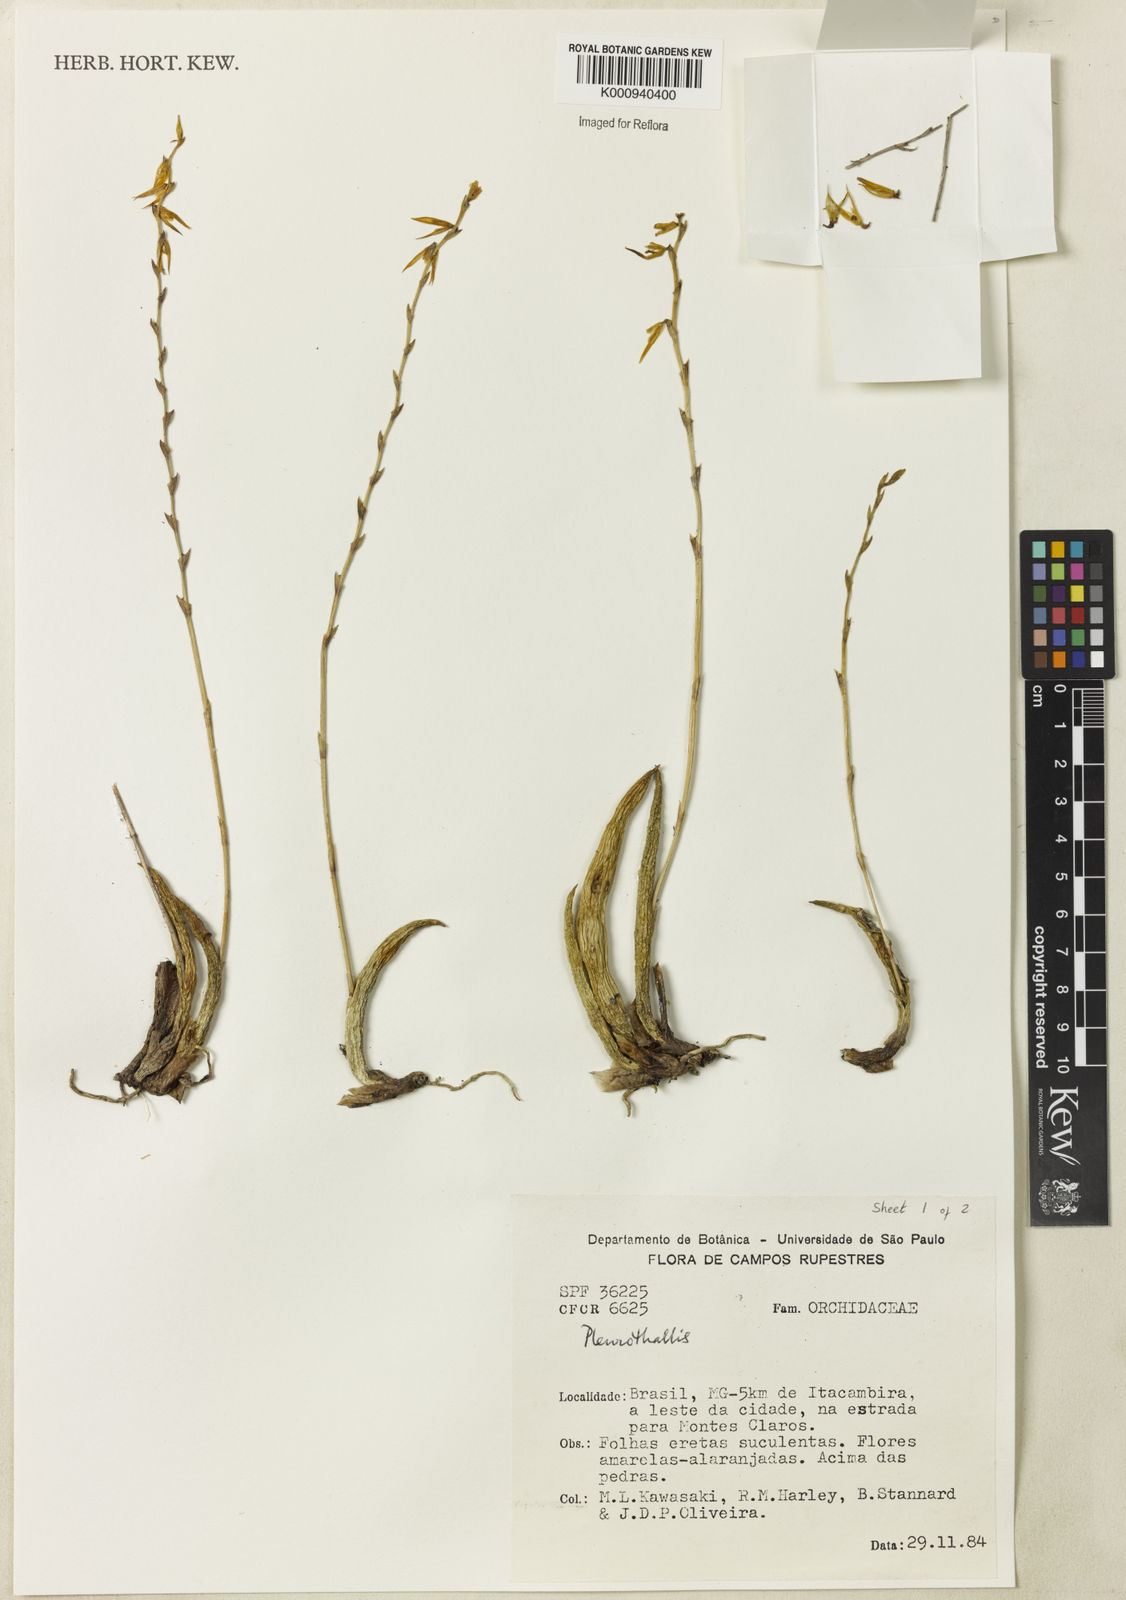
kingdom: Plantae
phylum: Tracheophyta
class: Liliopsida
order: Asparagales
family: Orchidaceae
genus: Acianthera
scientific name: Acianthera adamantinensis
